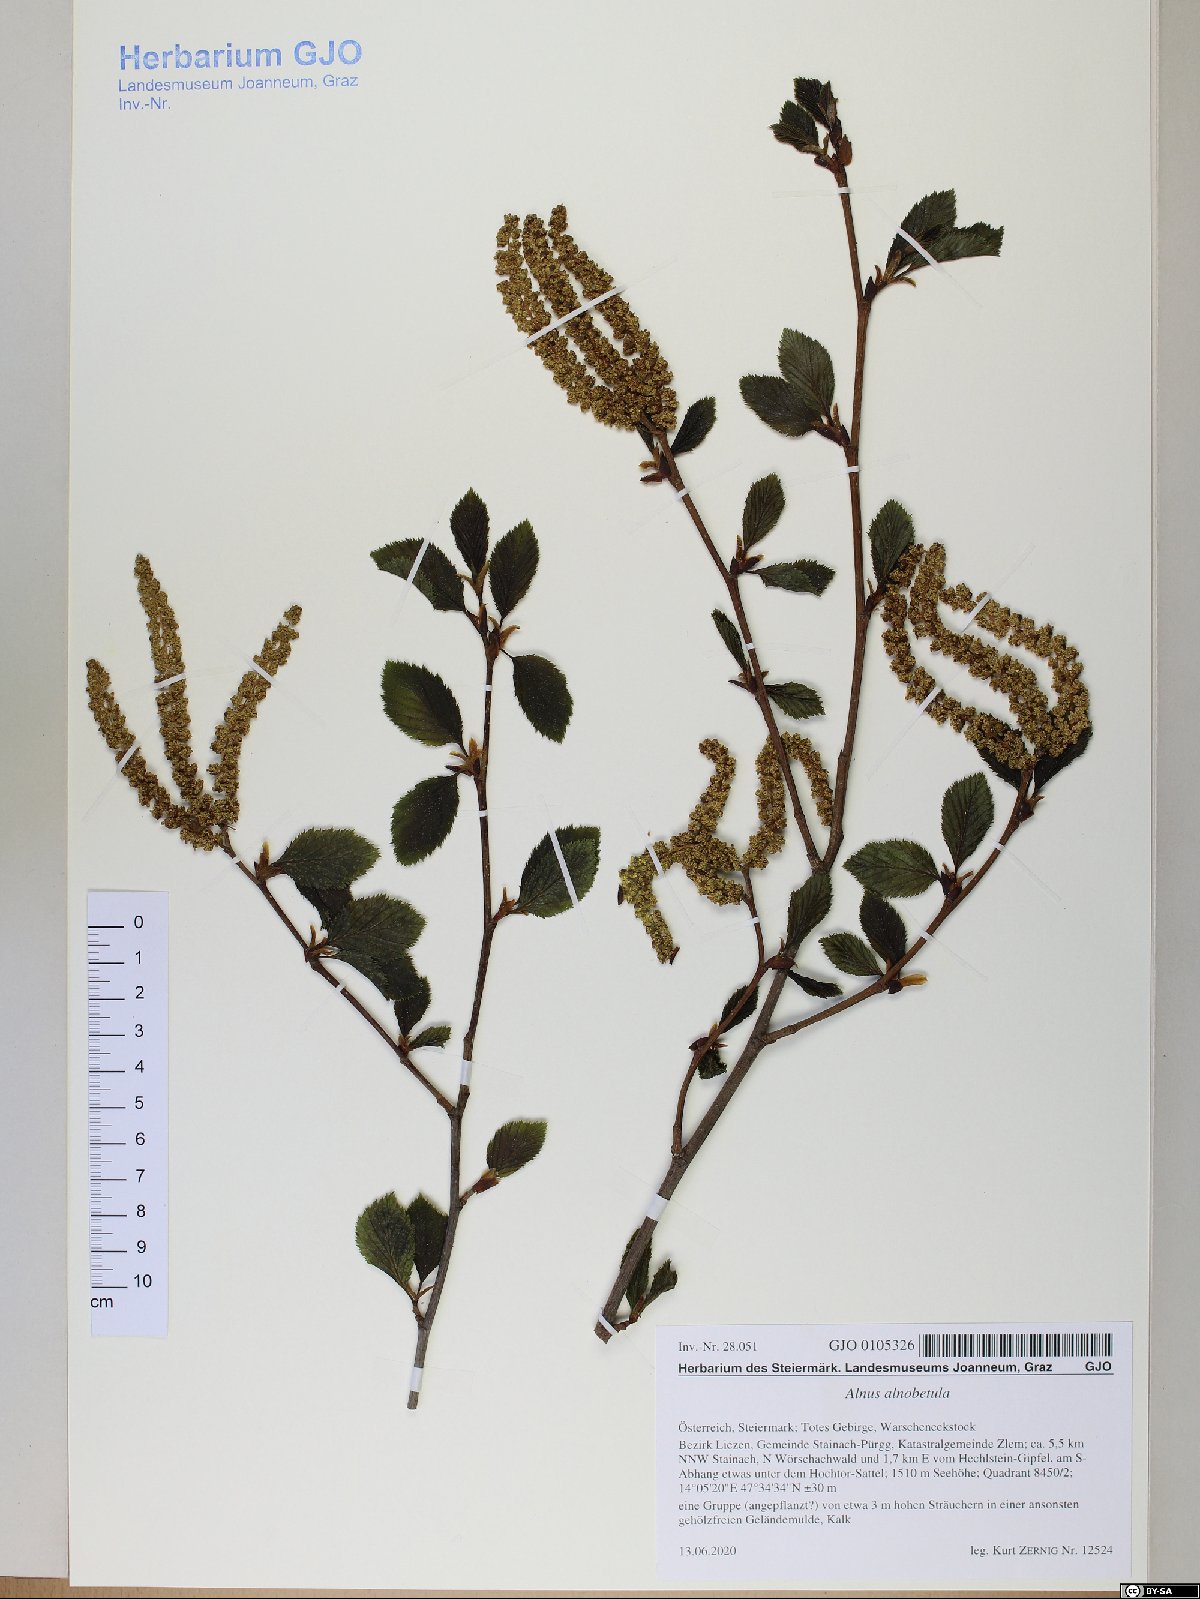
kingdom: Plantae
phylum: Tracheophyta
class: Magnoliopsida
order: Fagales
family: Betulaceae
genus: Alnus
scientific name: Alnus alnobetula
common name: Green alder
